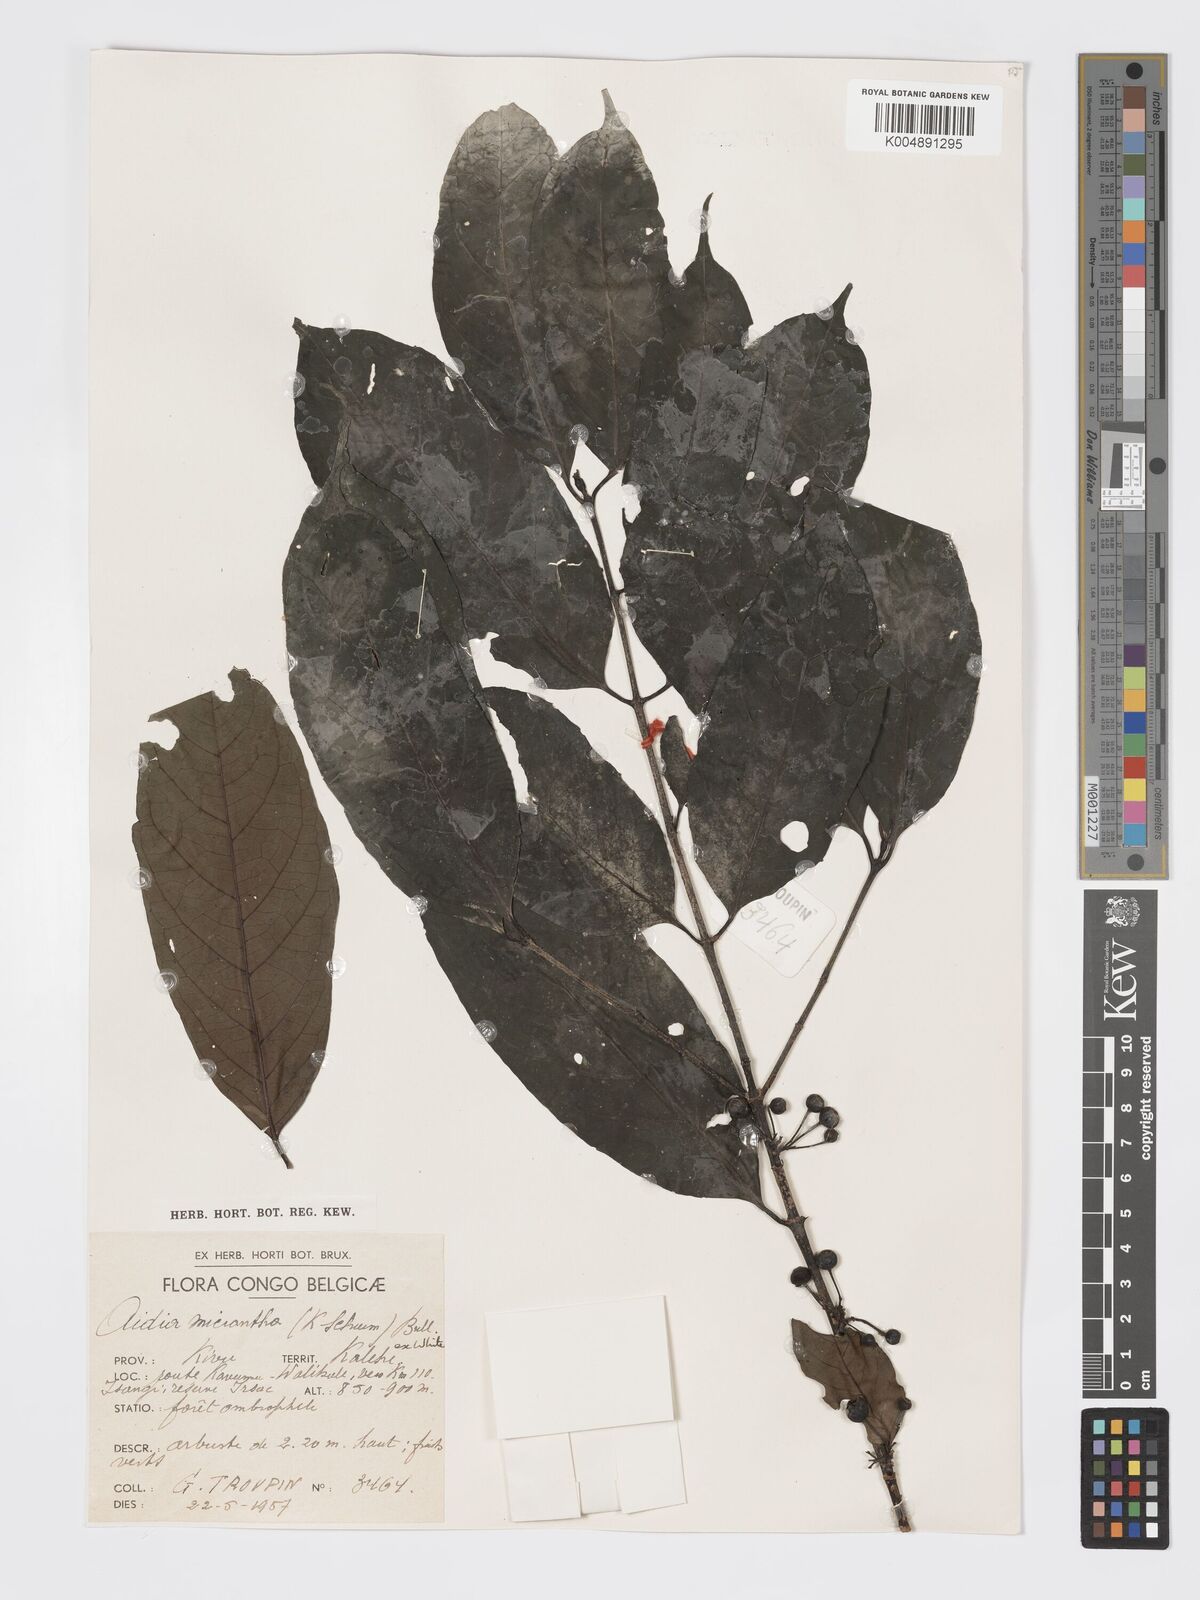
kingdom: Plantae
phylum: Tracheophyta
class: Magnoliopsida
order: Gentianales
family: Rubiaceae
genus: Aidia
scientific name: Aidia micrantha
